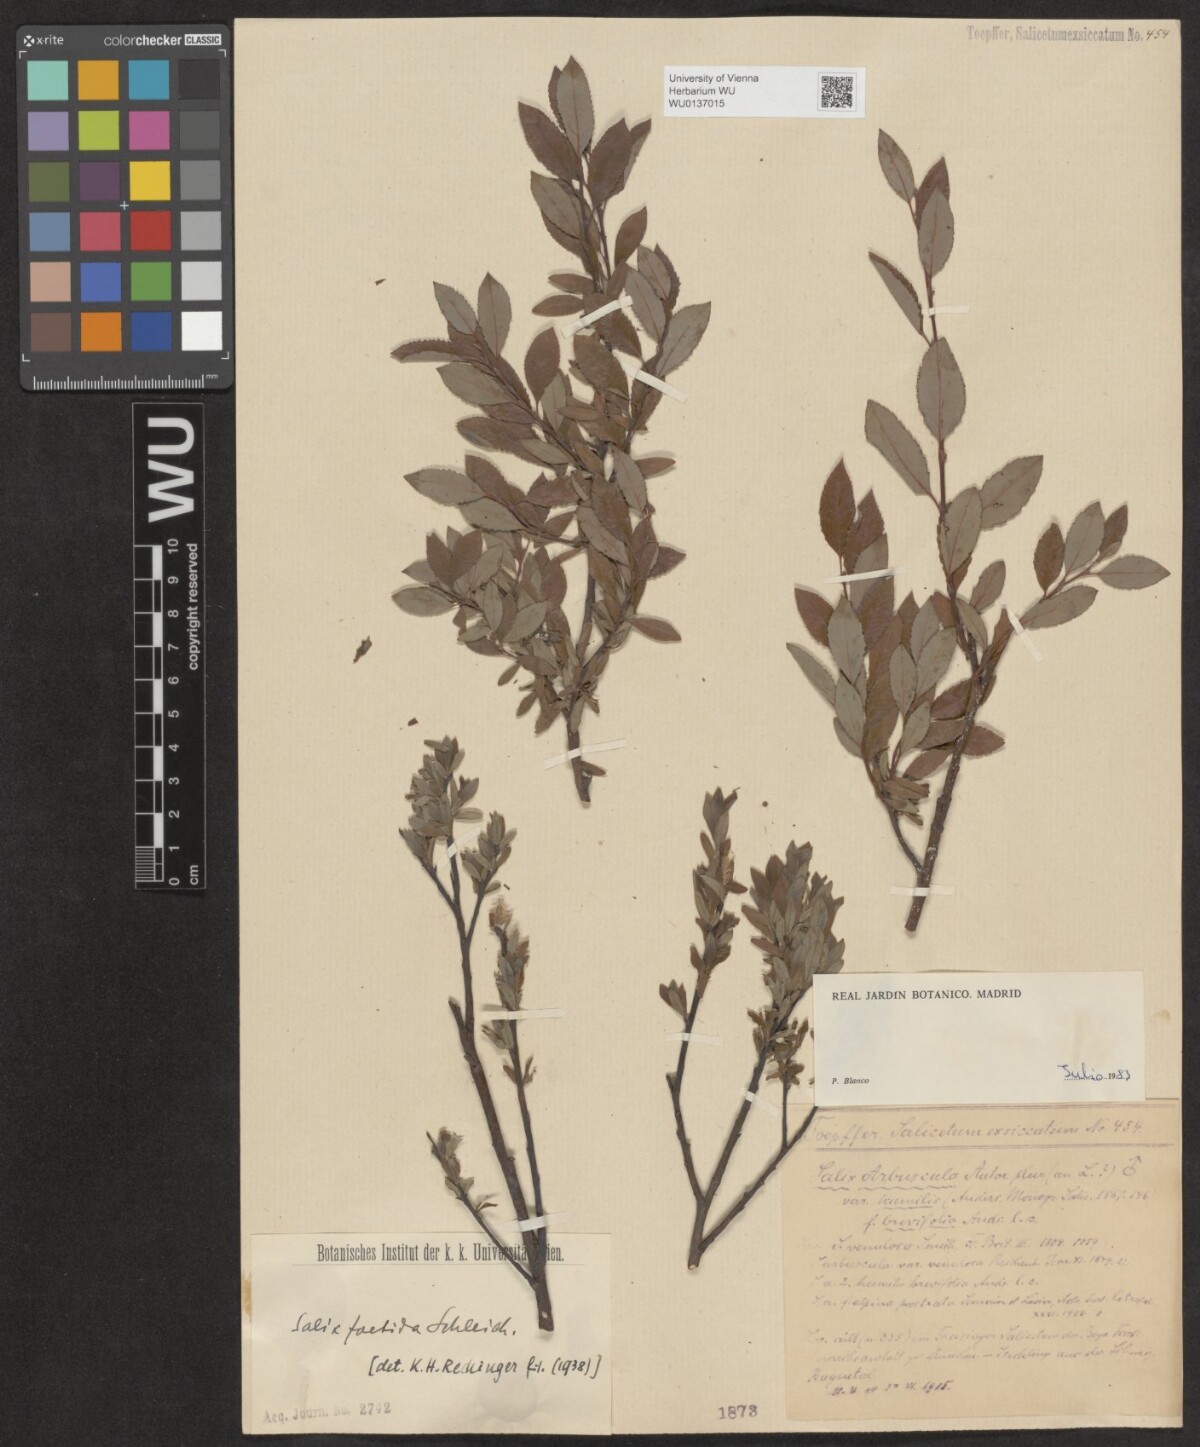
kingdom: Plantae
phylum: Tracheophyta
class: Magnoliopsida
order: Malpighiales
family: Salicaceae
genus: Salix
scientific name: Salix foetida
